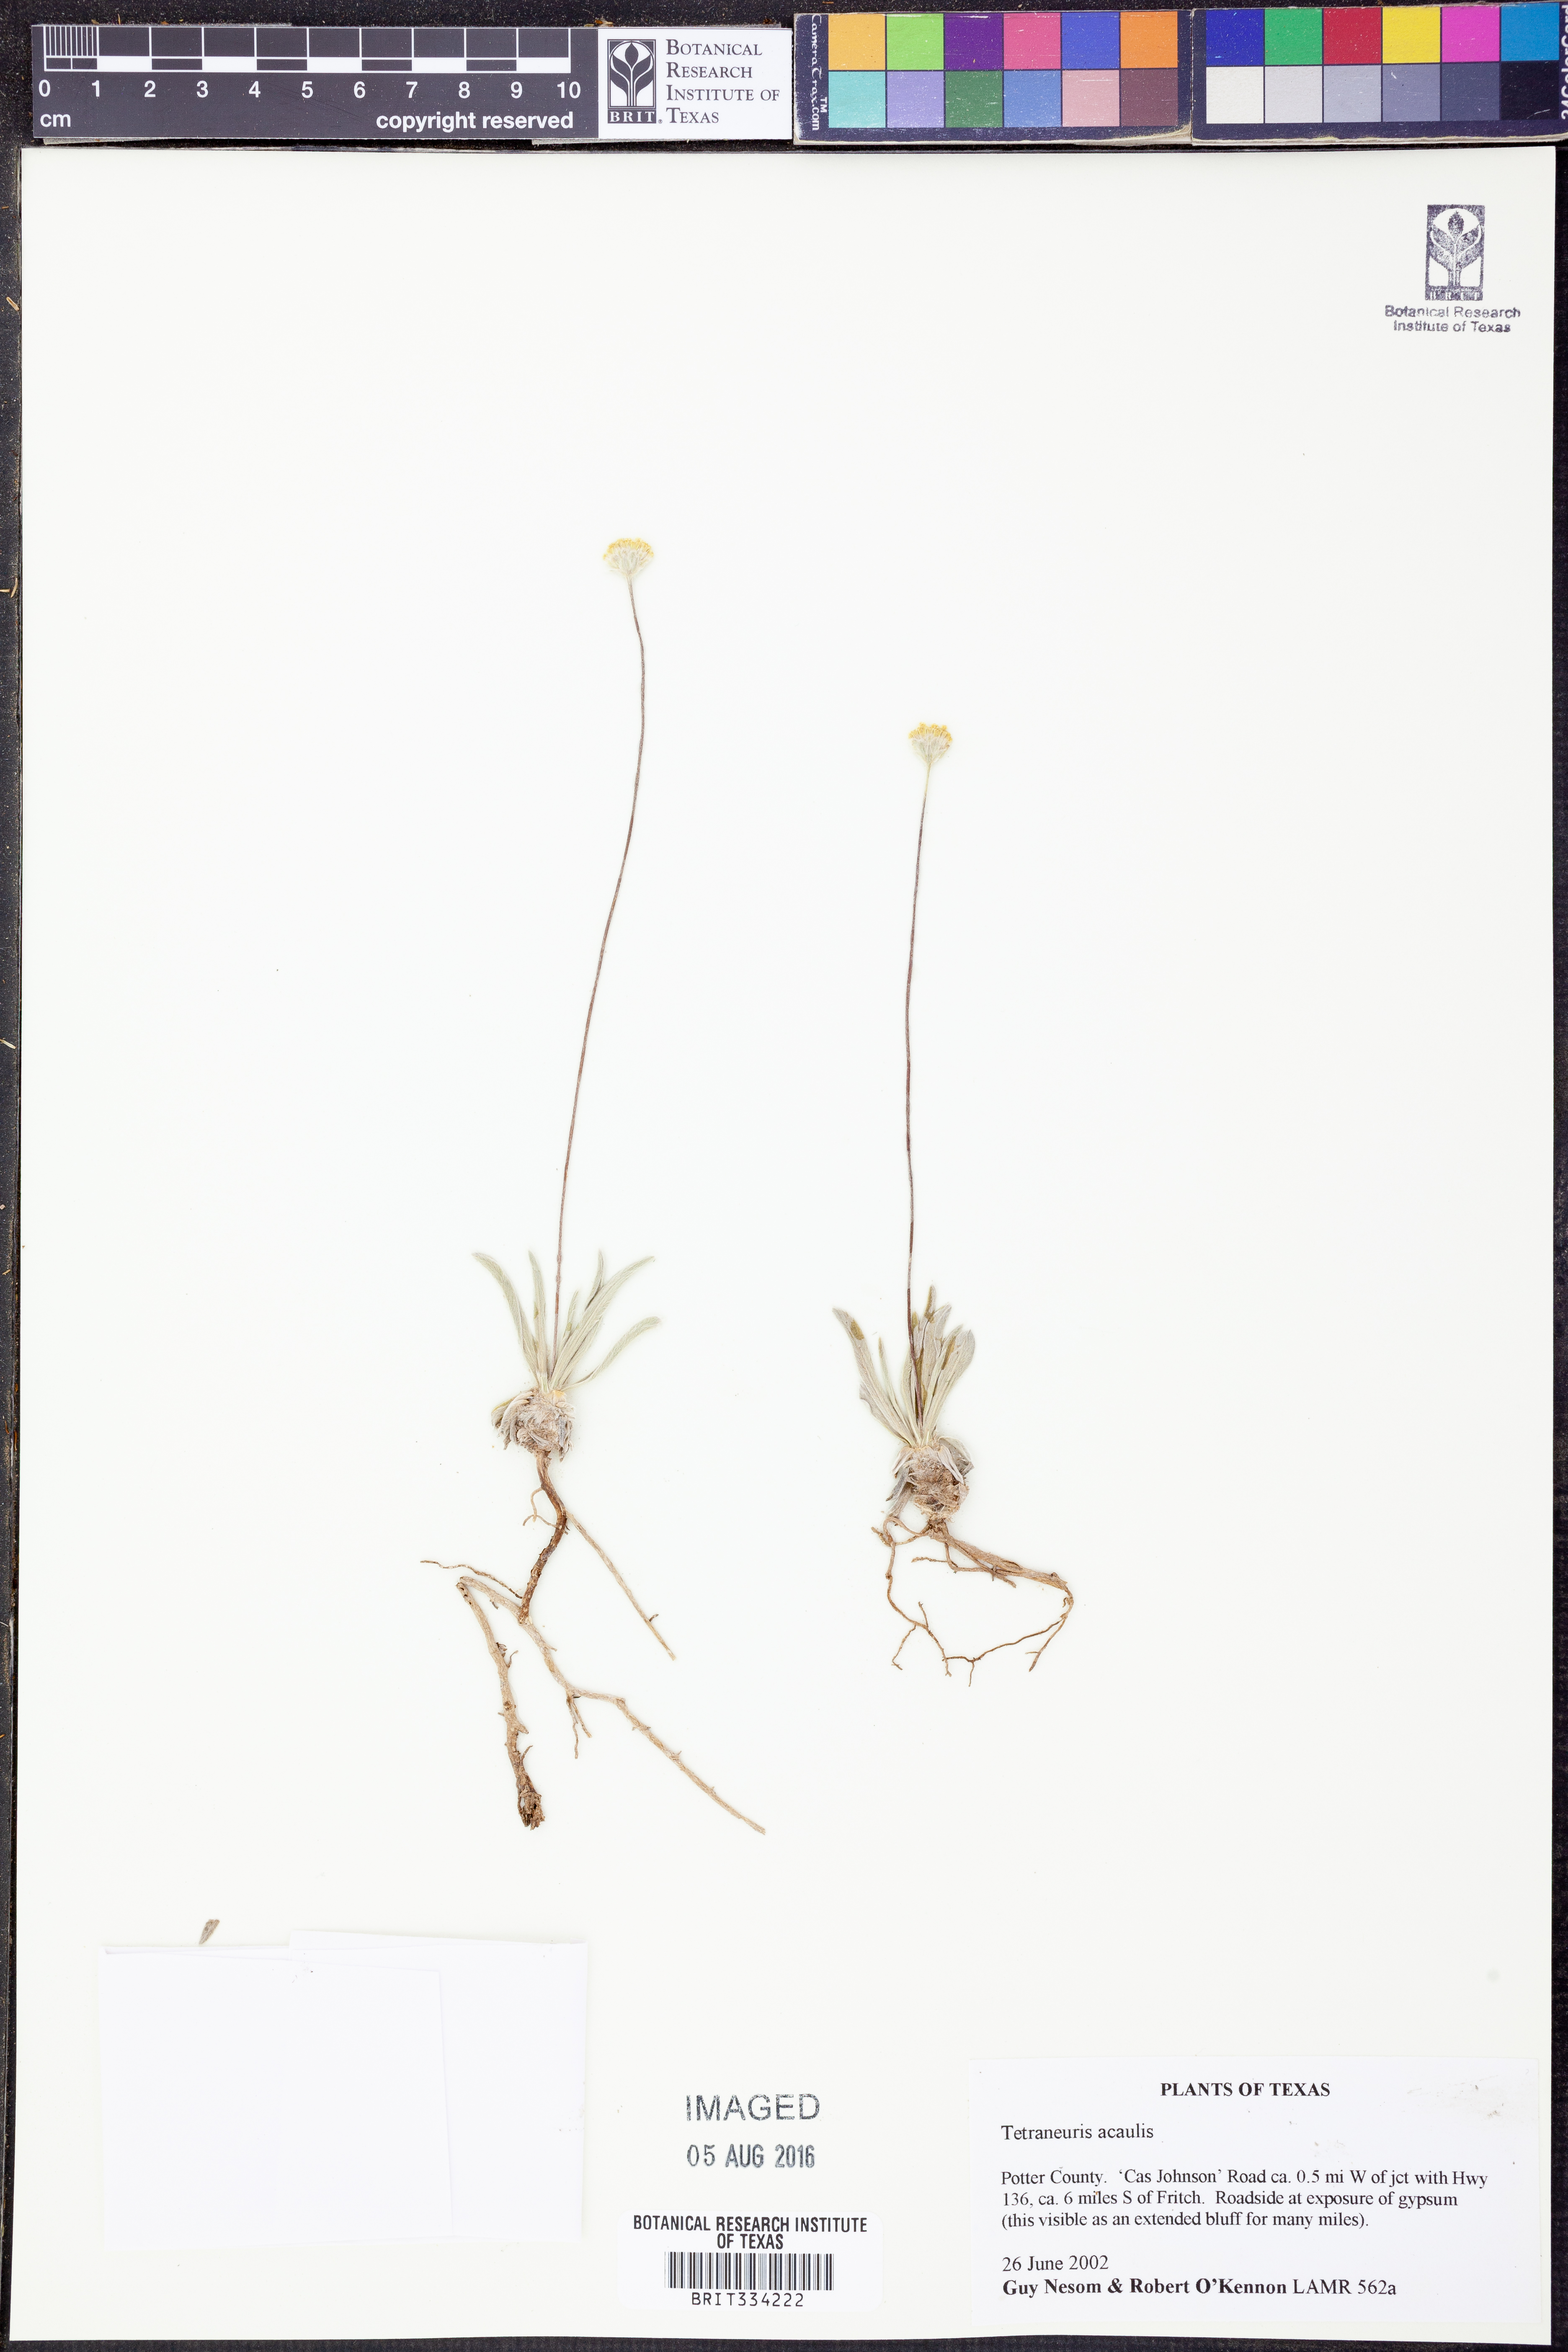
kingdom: Plantae
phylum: Tracheophyta
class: Magnoliopsida
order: Asterales
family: Asteraceae
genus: Tetraneuris
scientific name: Tetraneuris acaulis
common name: Butte marigold
